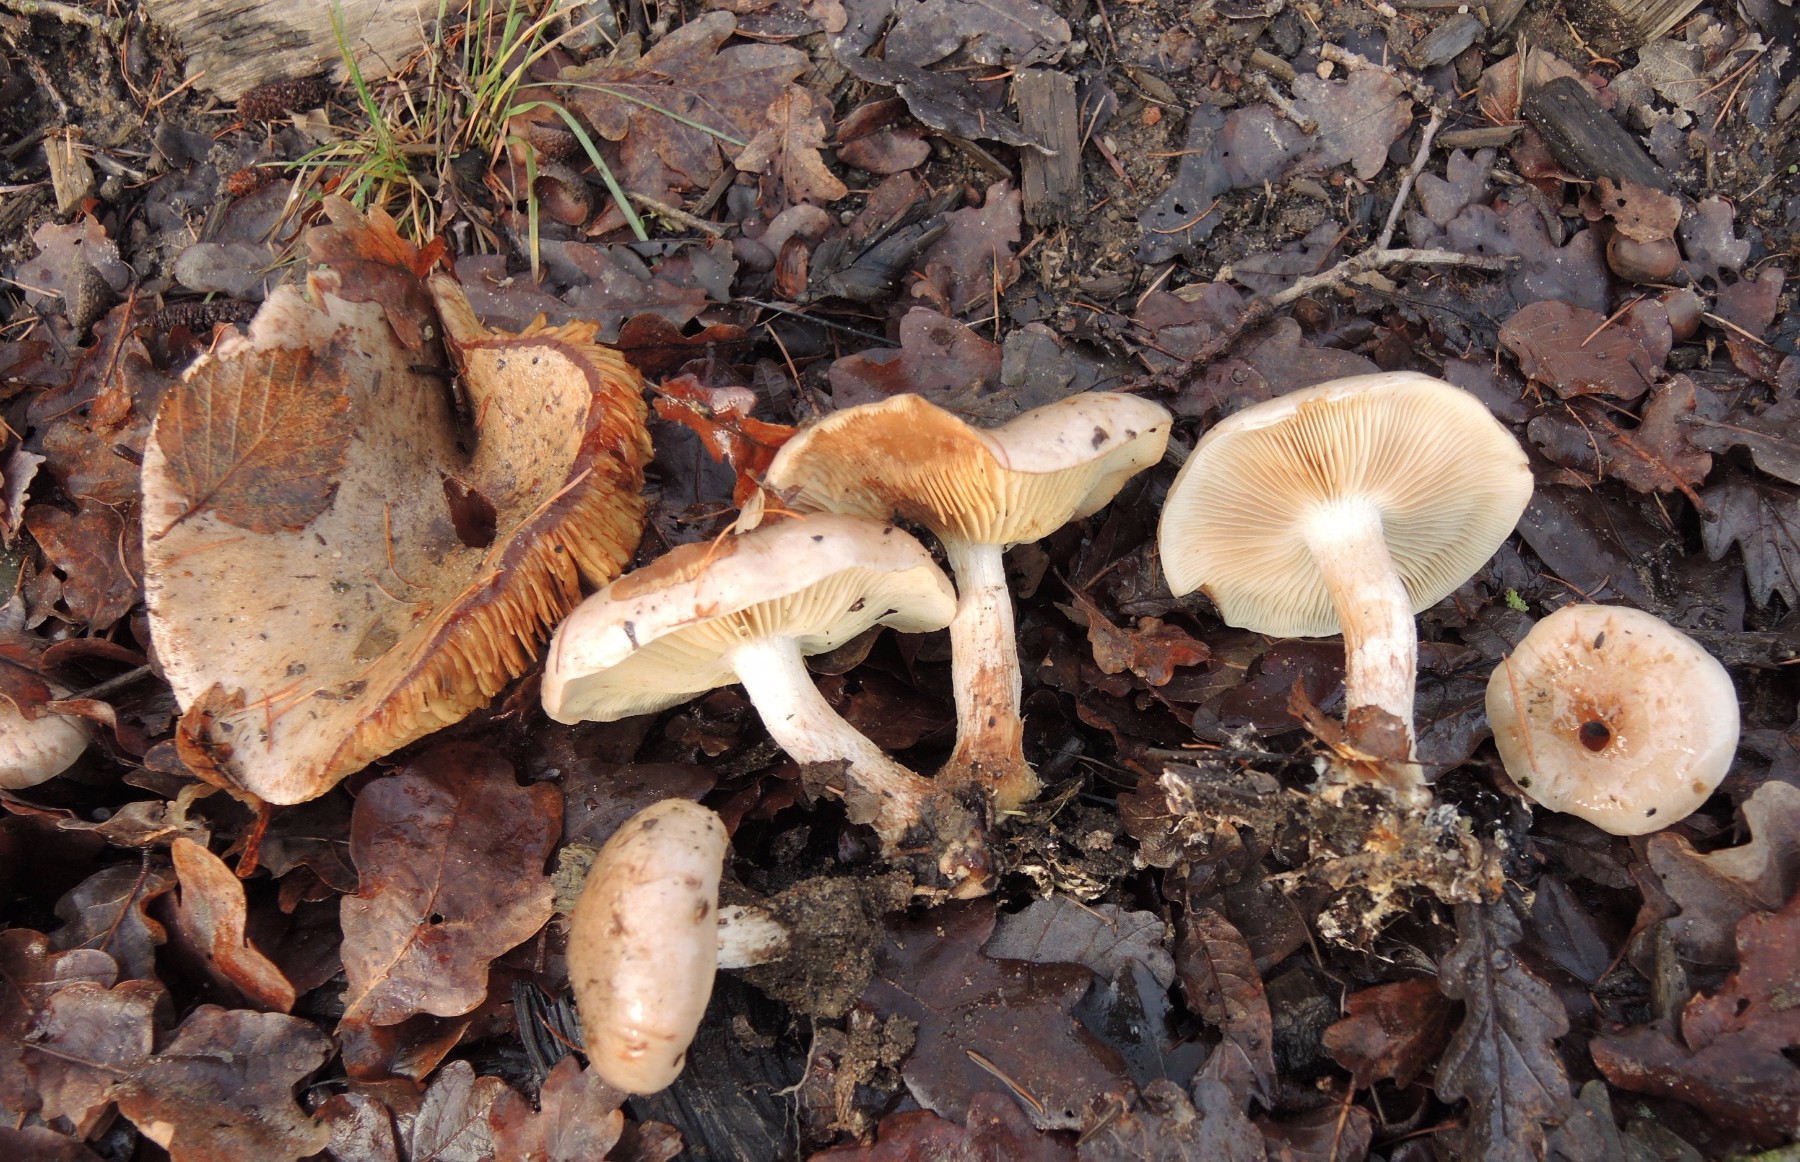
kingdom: Fungi
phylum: Basidiomycota
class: Agaricomycetes
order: Agaricales
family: Strophariaceae
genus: Pholiota
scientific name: Pholiota lenta
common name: løv-skælhat
